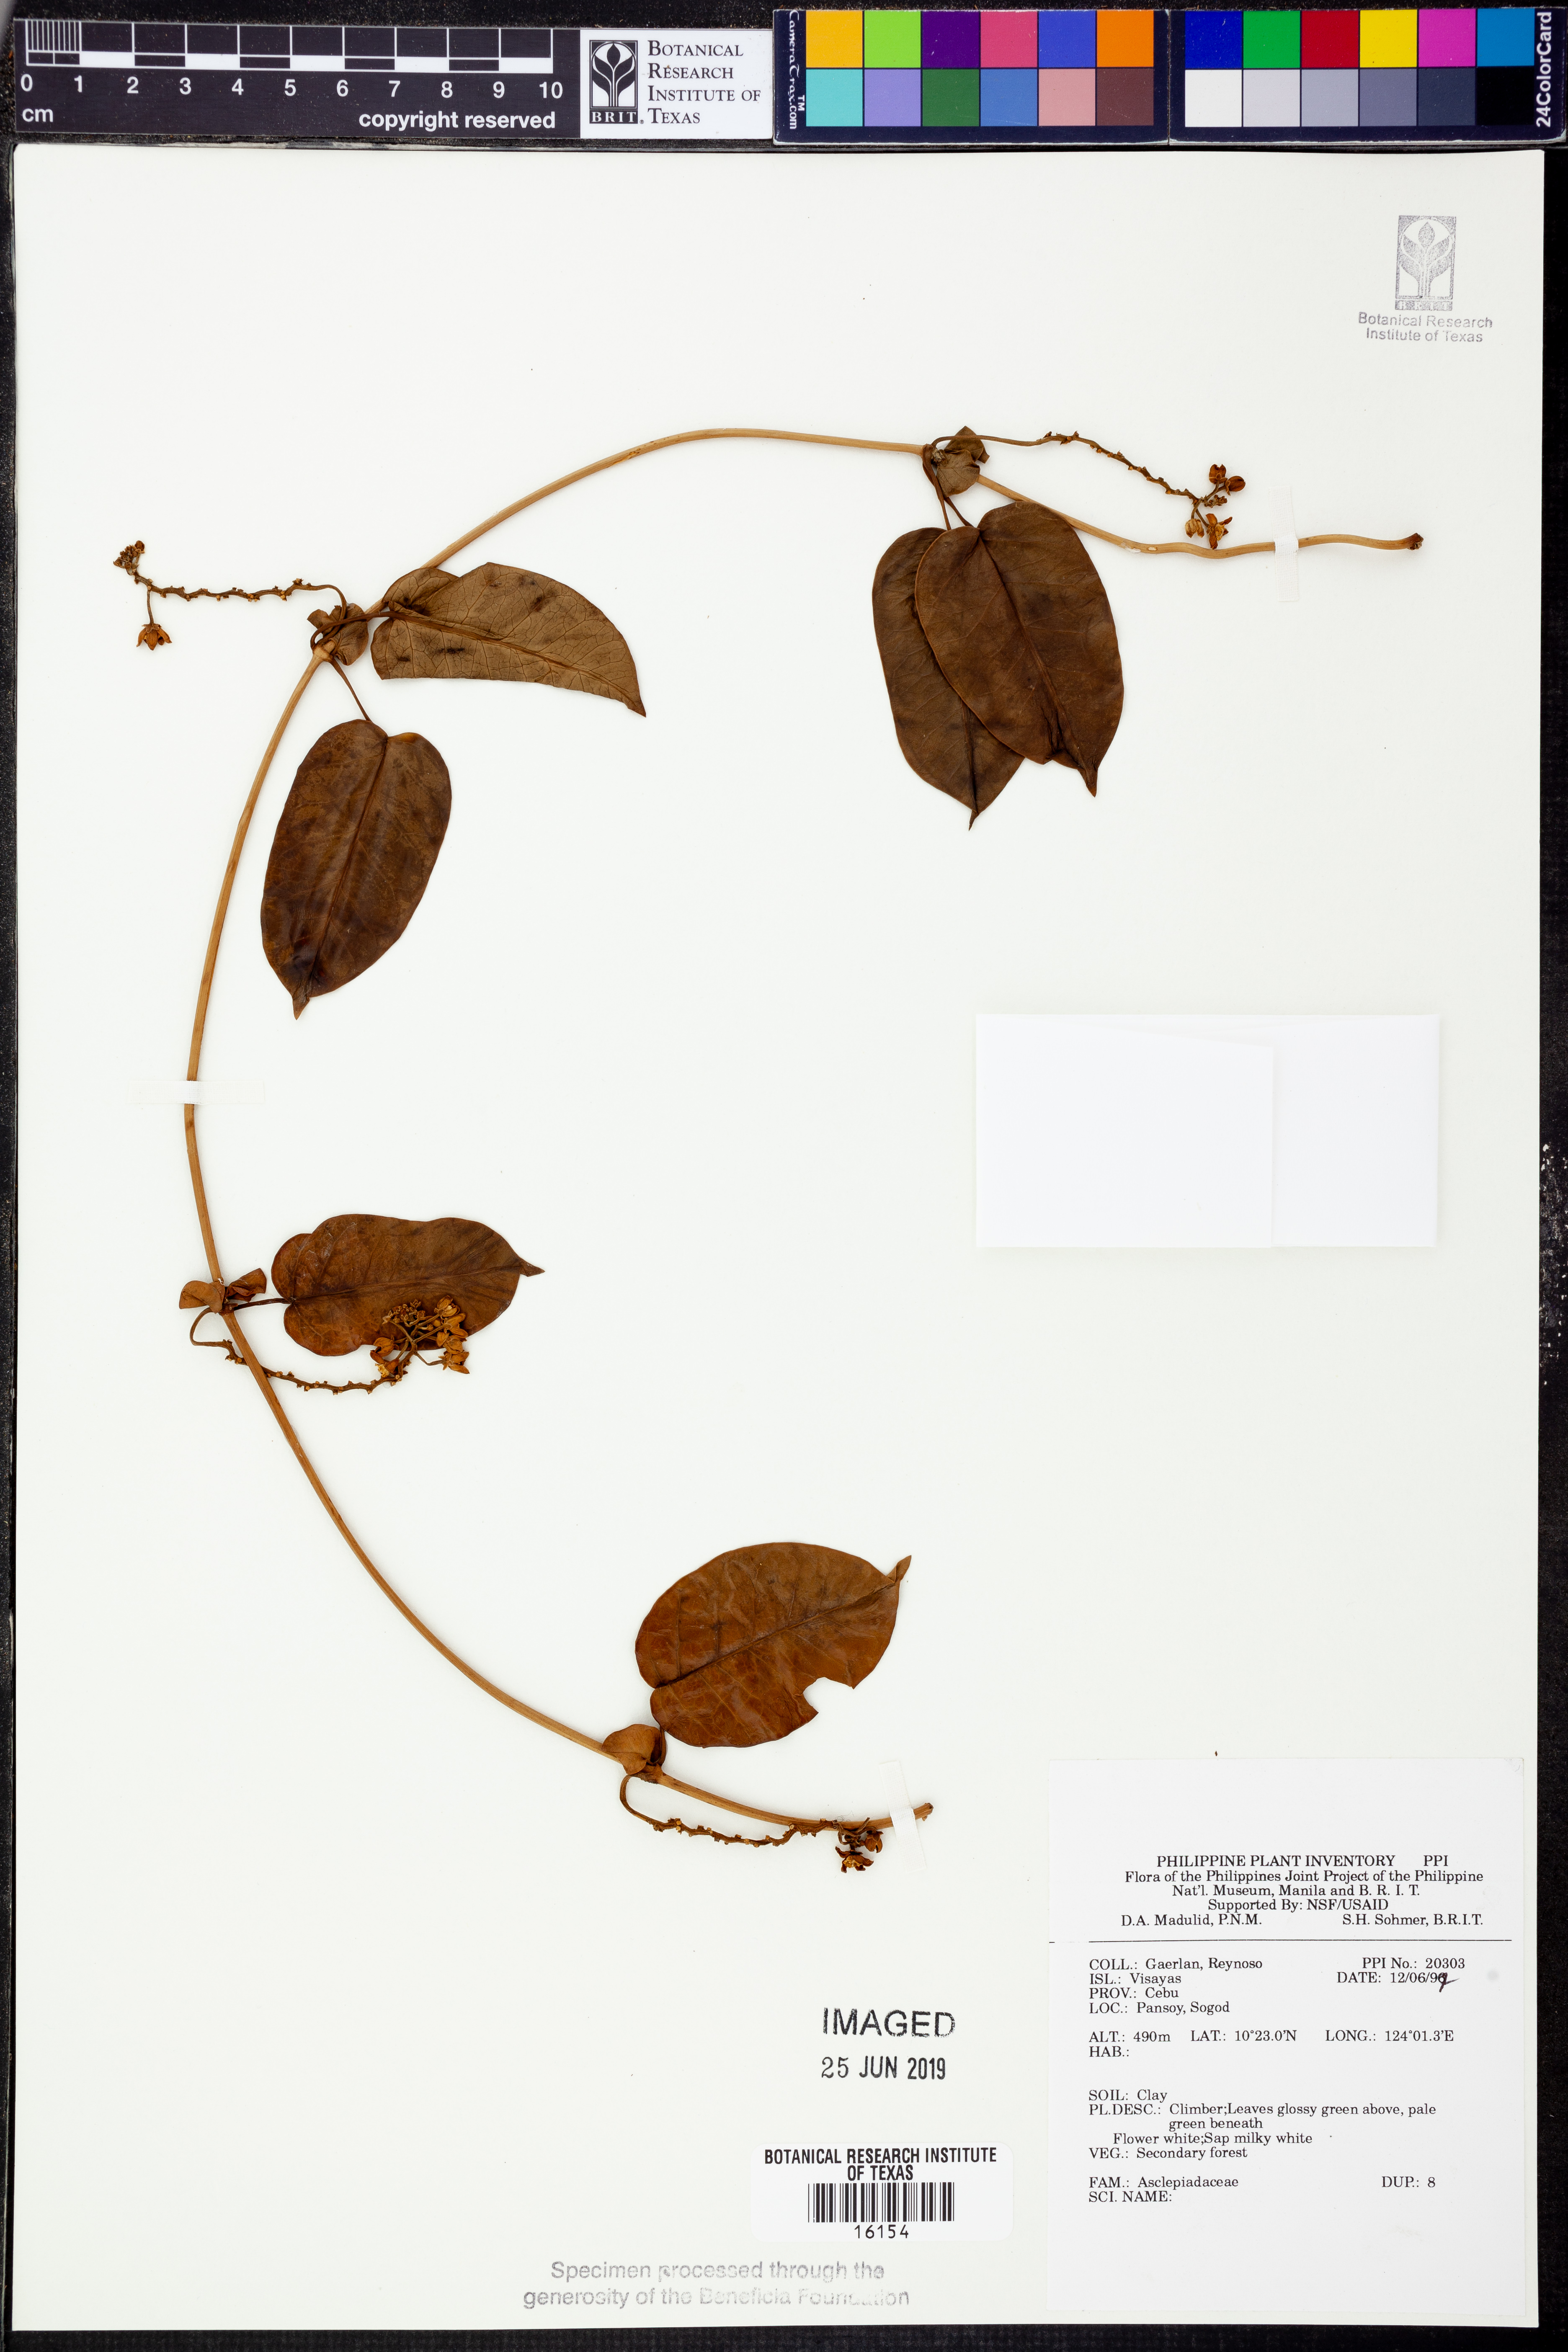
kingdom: Plantae
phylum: Tracheophyta
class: Magnoliopsida
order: Gentianales
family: Apocynaceae
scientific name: Apocynaceae
